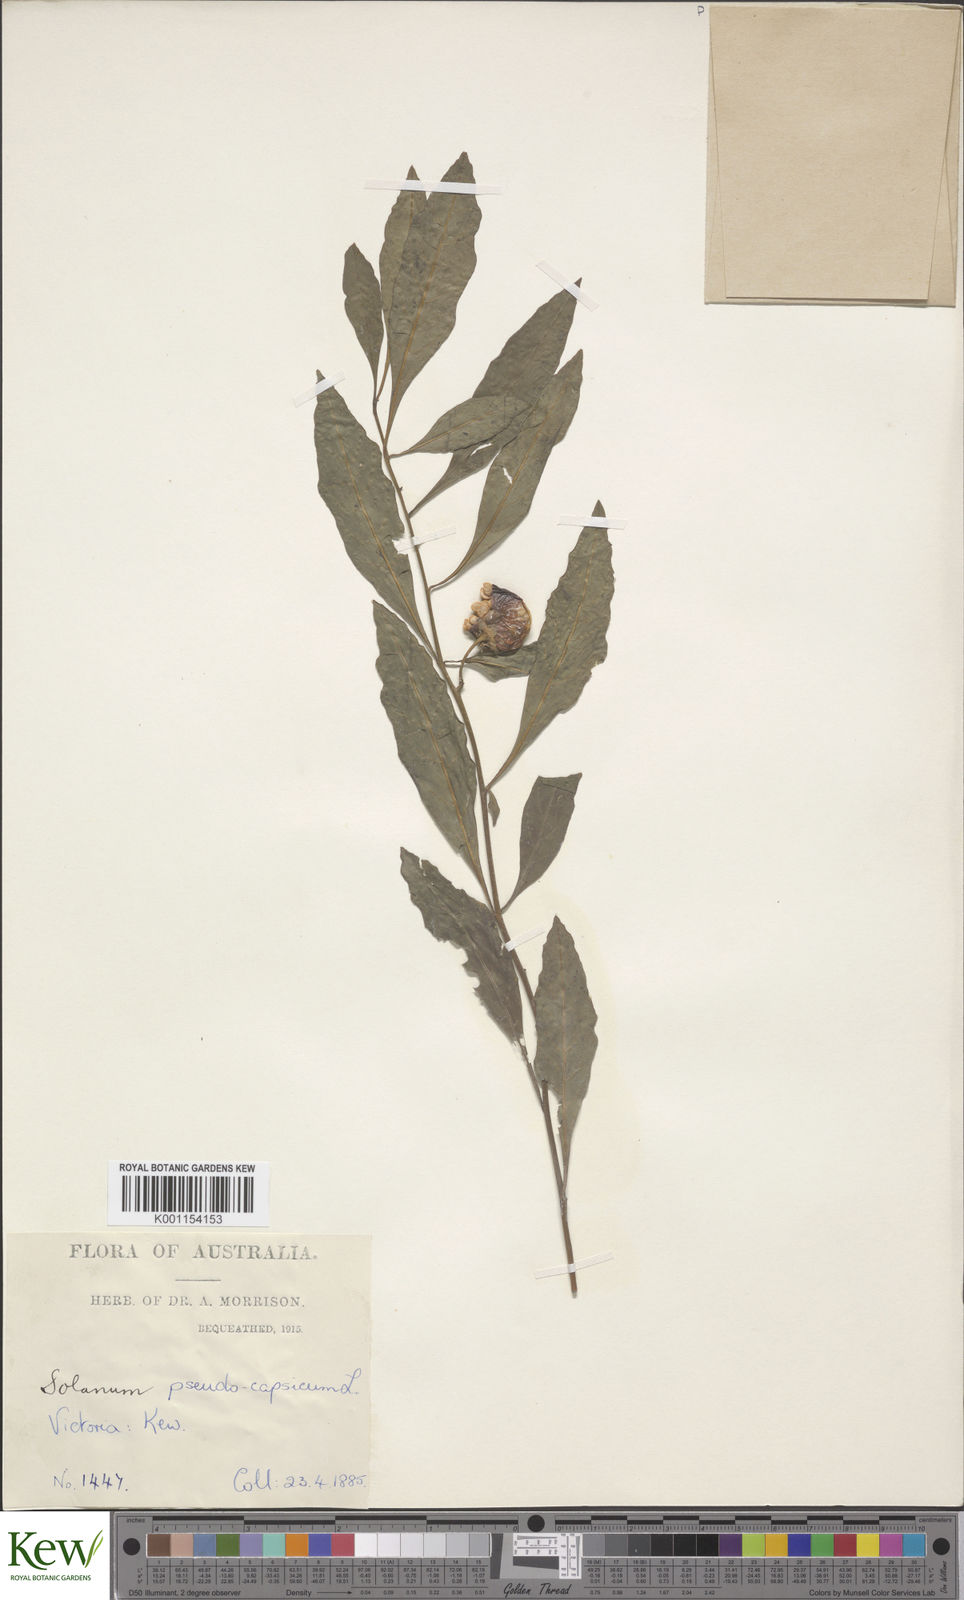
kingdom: Plantae
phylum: Tracheophyta
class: Magnoliopsida
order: Solanales
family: Solanaceae
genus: Solanum
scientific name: Solanum pseudocapsicum
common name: Jerusalem cherry
